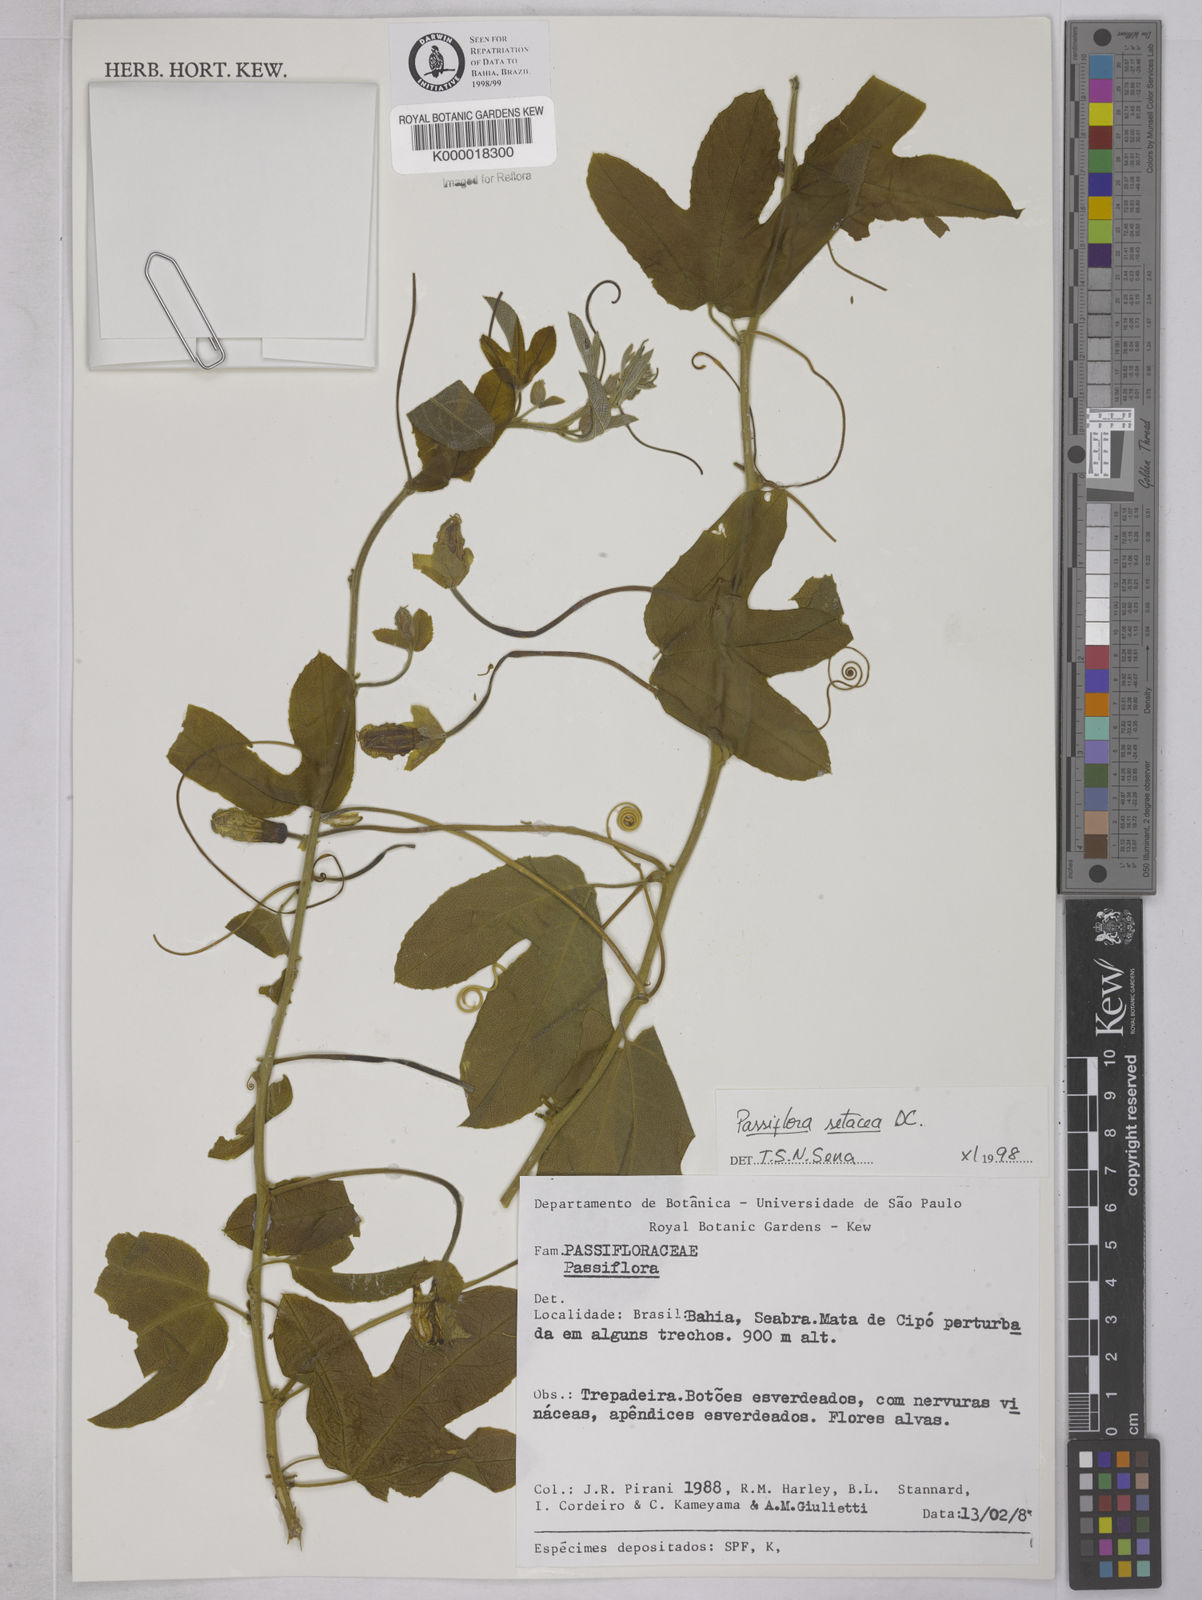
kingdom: Plantae
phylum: Tracheophyta
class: Magnoliopsida
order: Malpighiales
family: Passifloraceae
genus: Passiflora
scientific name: Passiflora setacea
